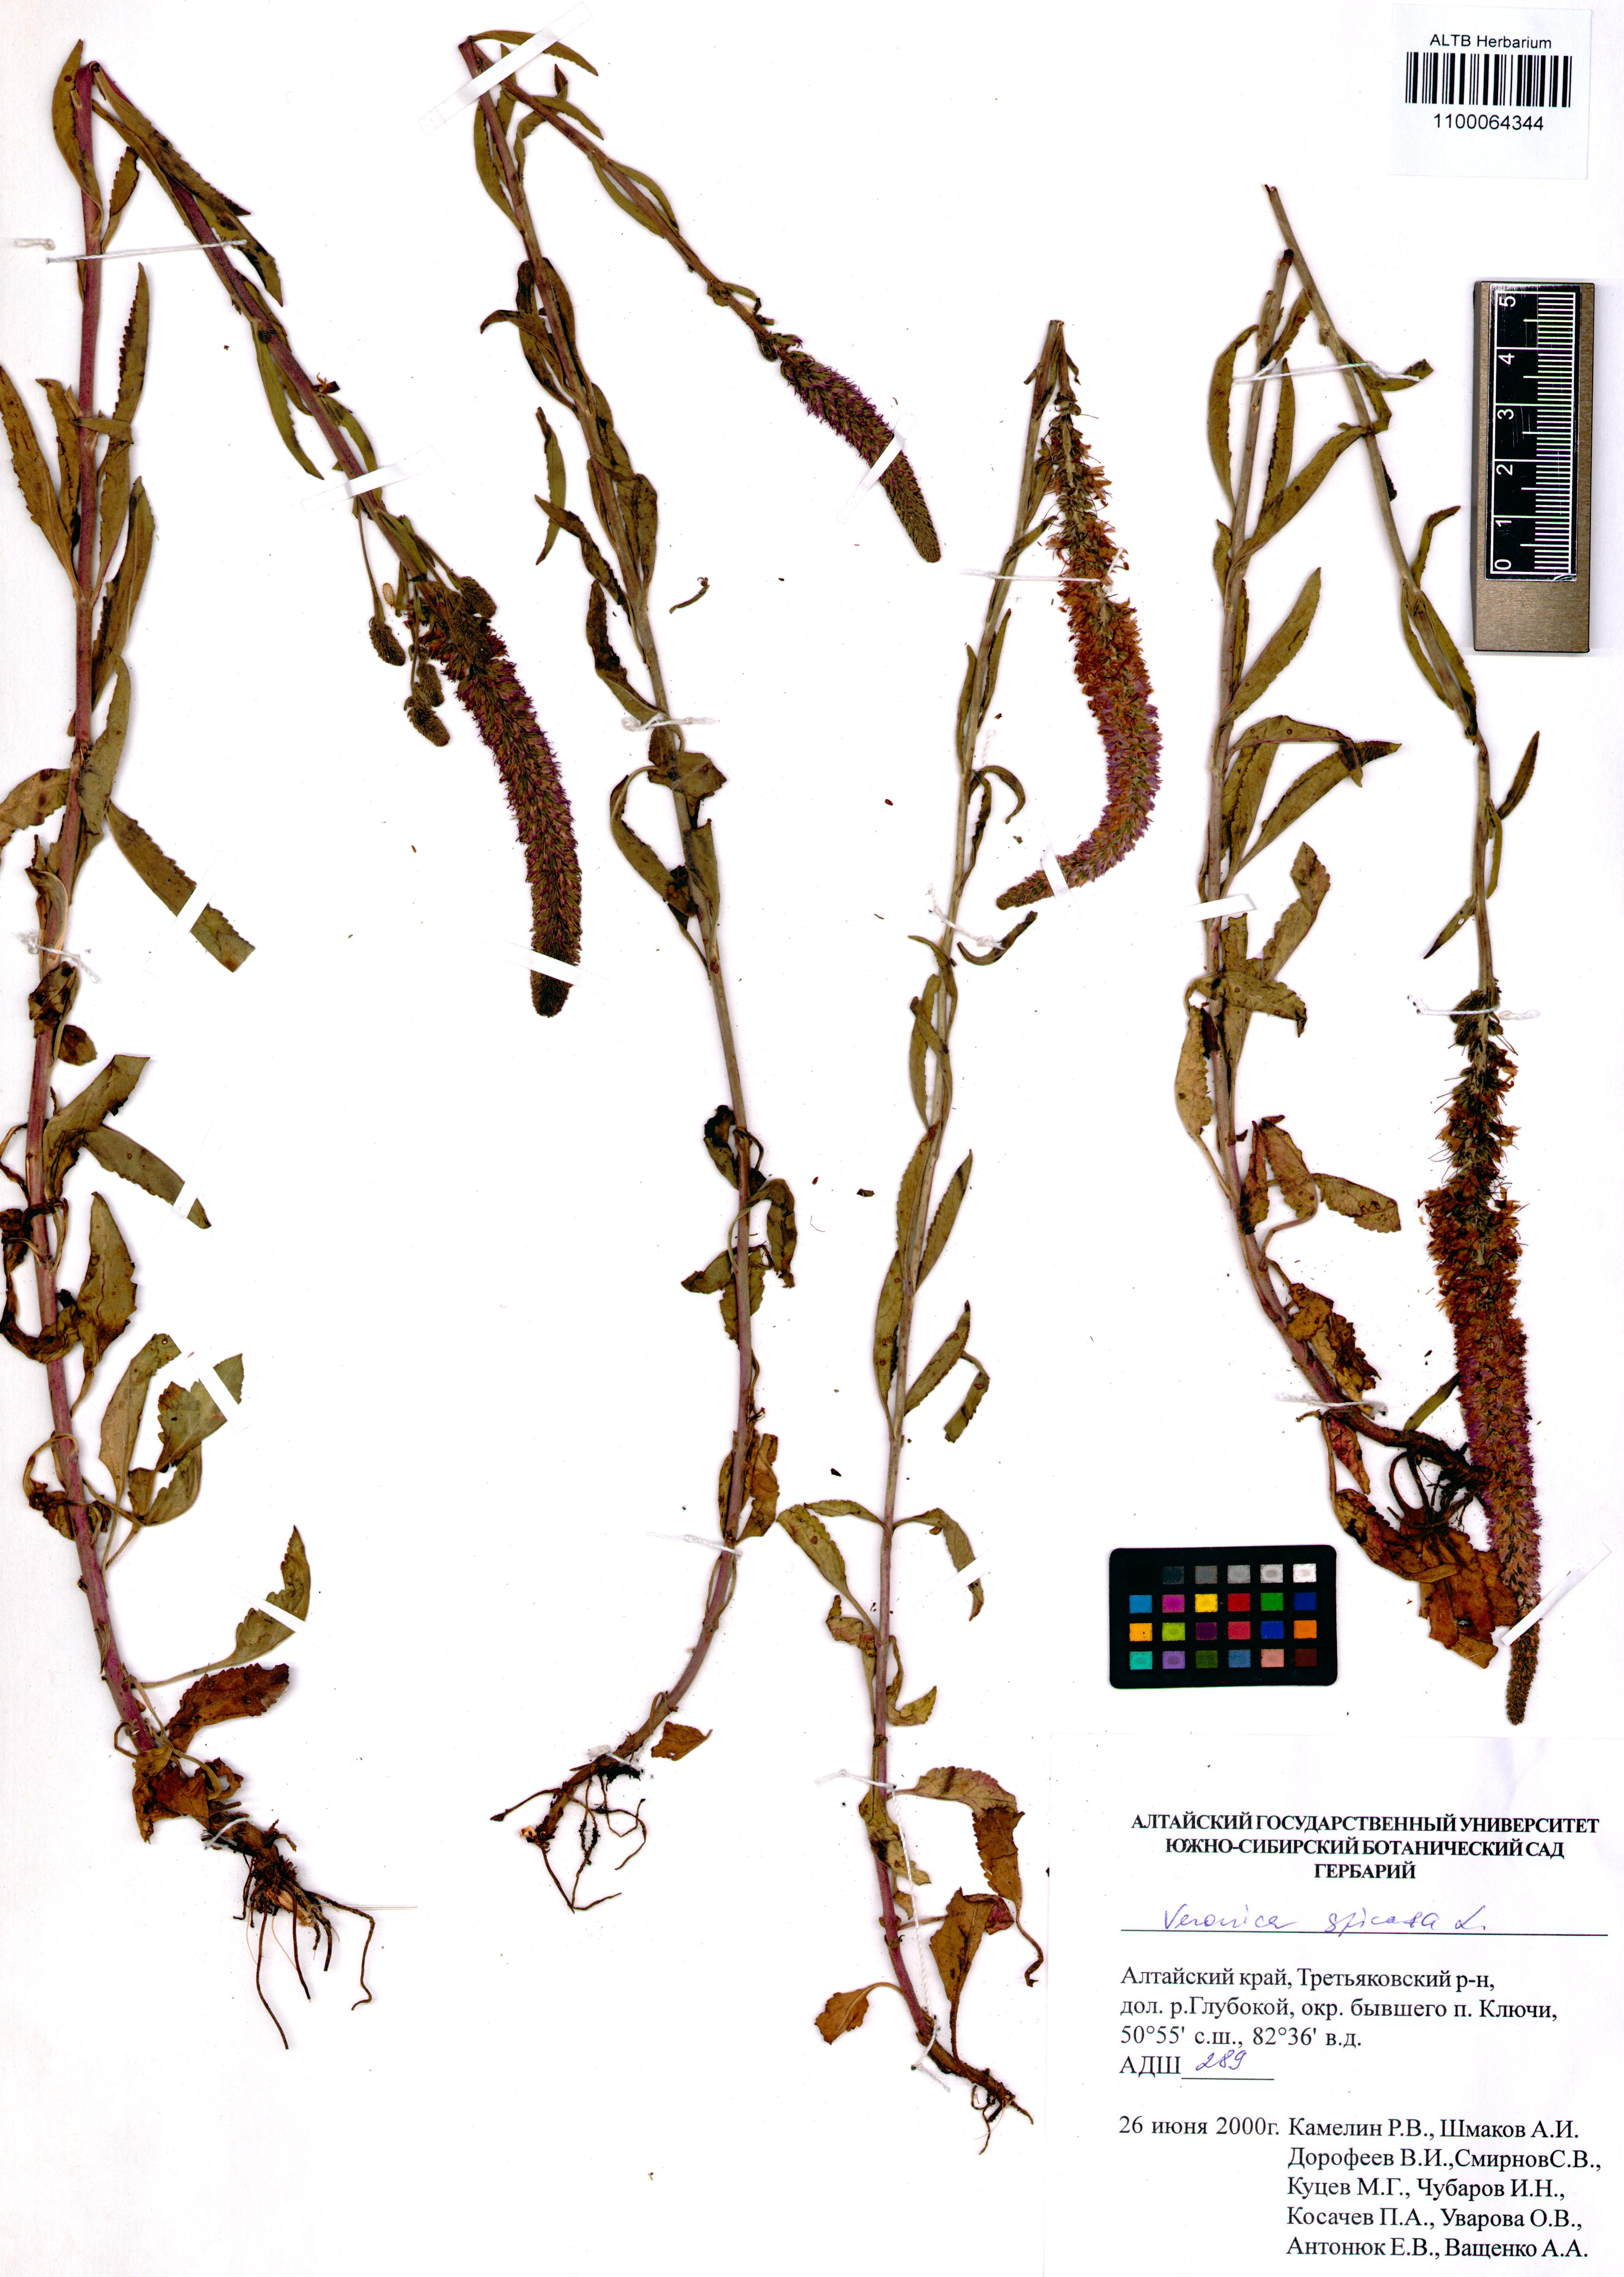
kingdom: Plantae
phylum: Tracheophyta
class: Magnoliopsida
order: Lamiales
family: Plantaginaceae
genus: Veronica
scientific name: Veronica spicata
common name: Spiked speedwell
